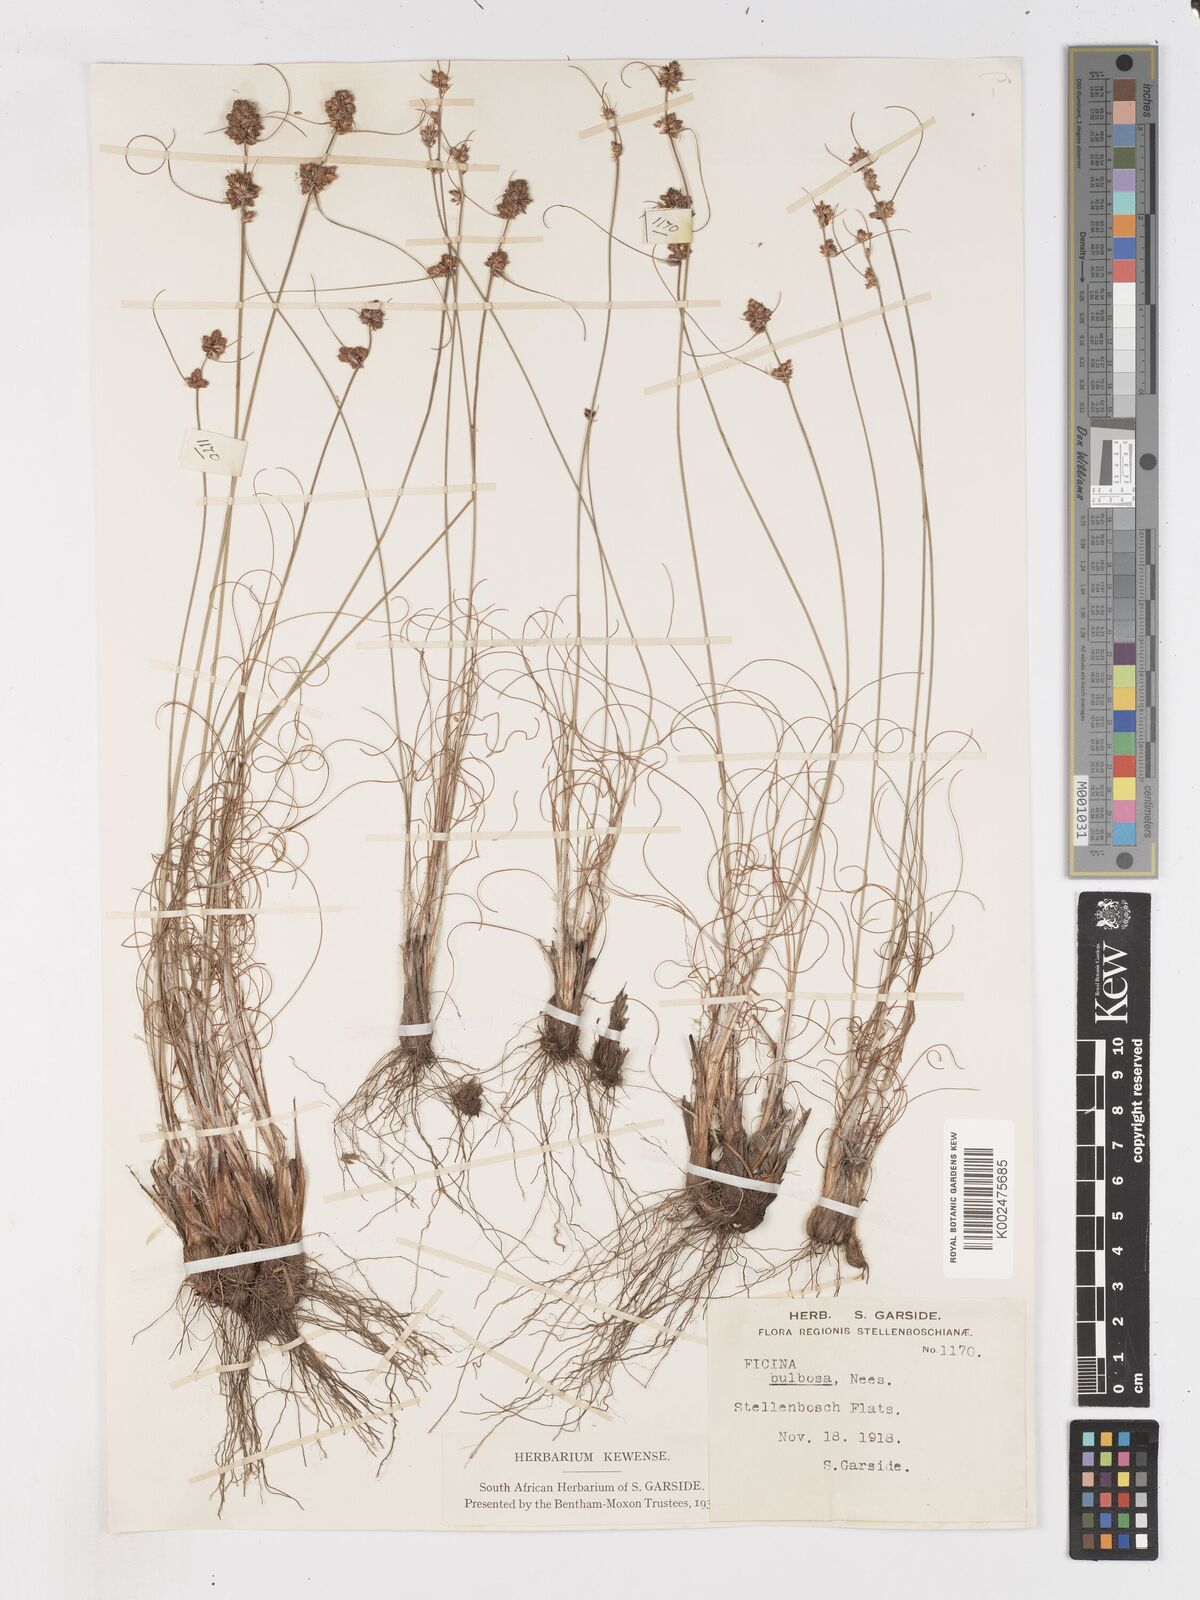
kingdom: Plantae
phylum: Tracheophyta
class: Liliopsida
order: Poales
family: Cyperaceae
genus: Ficinia
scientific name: Ficinia bulbosa
